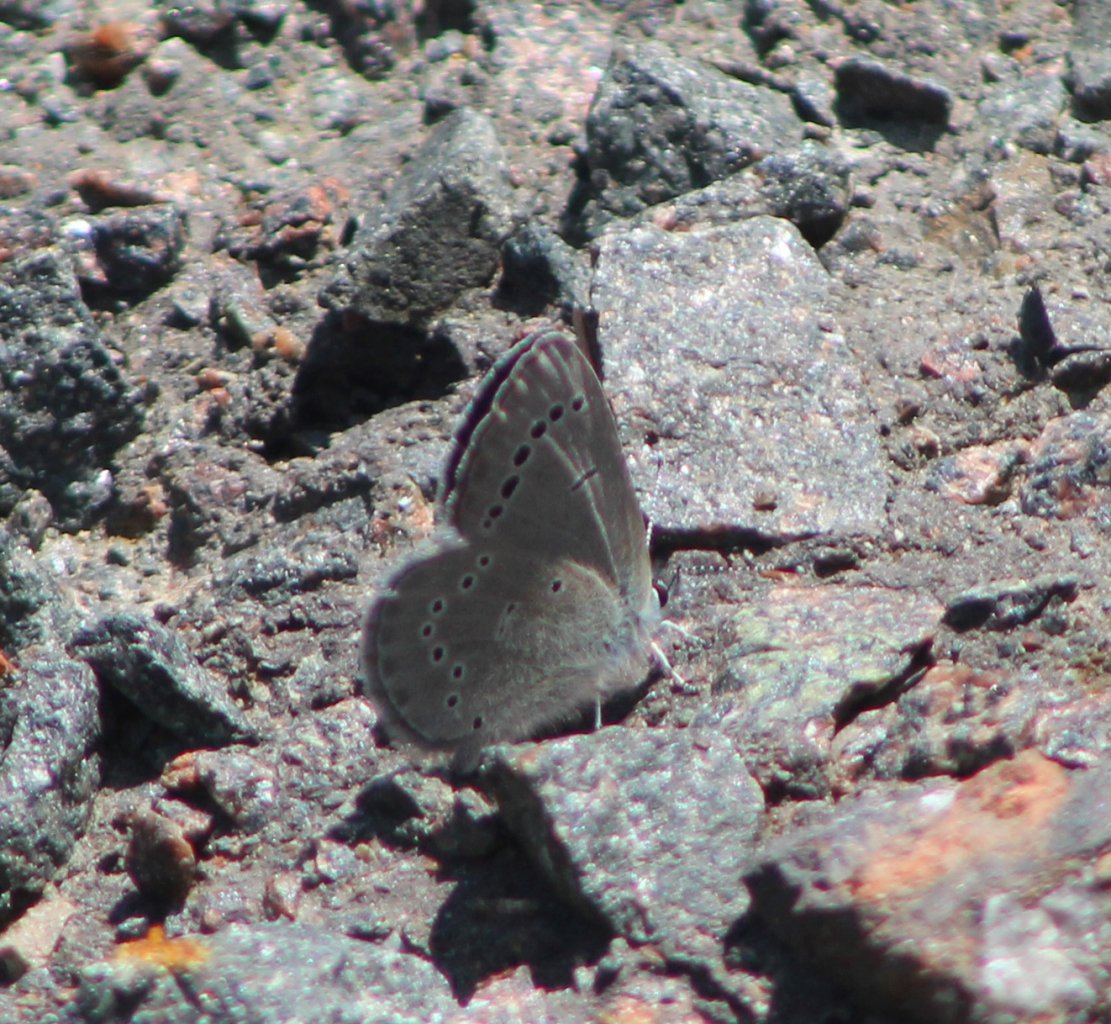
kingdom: Animalia
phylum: Arthropoda
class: Insecta
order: Lepidoptera
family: Lycaenidae
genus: Glaucopsyche
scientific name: Glaucopsyche lygdamus
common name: Silvery Blue
